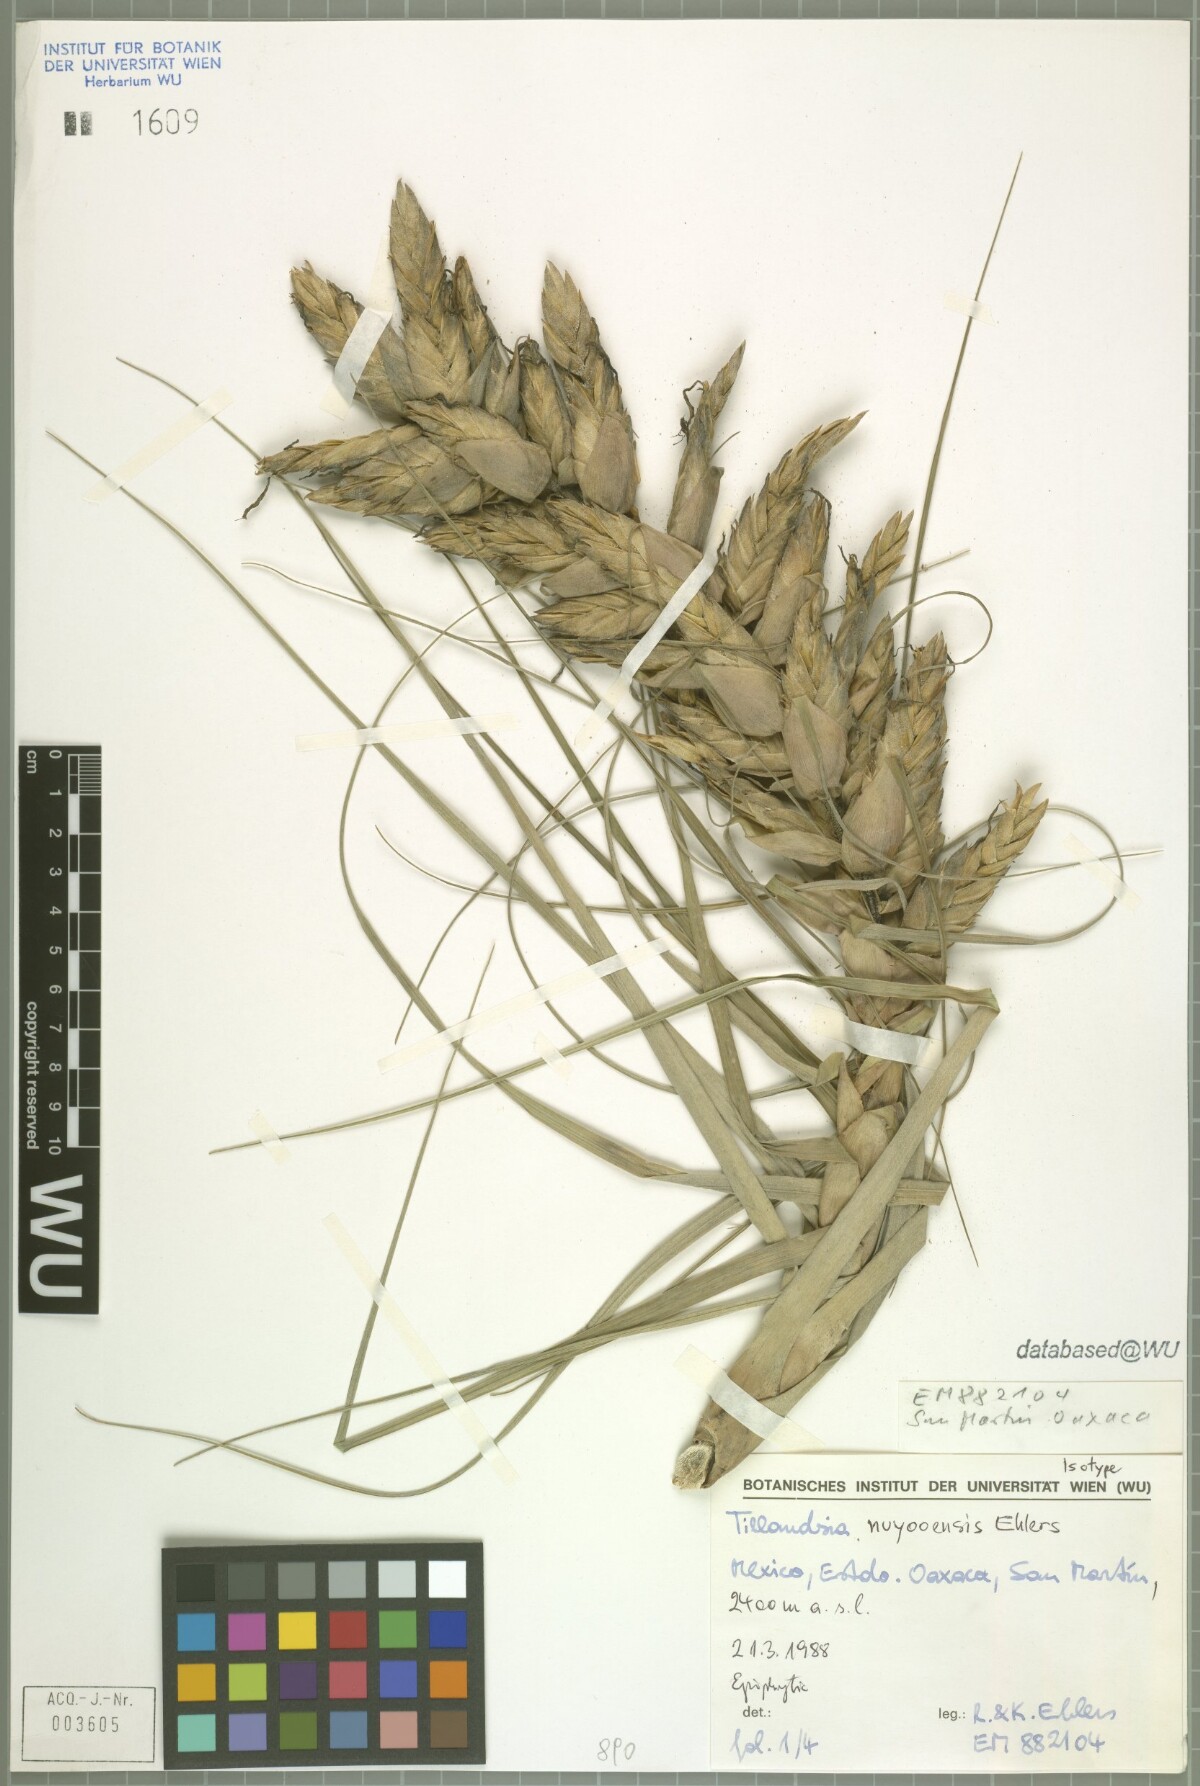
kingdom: Plantae
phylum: Tracheophyta
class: Liliopsida
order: Poales
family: Bromeliaceae
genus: Tillandsia
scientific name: Tillandsia nuyooensis
